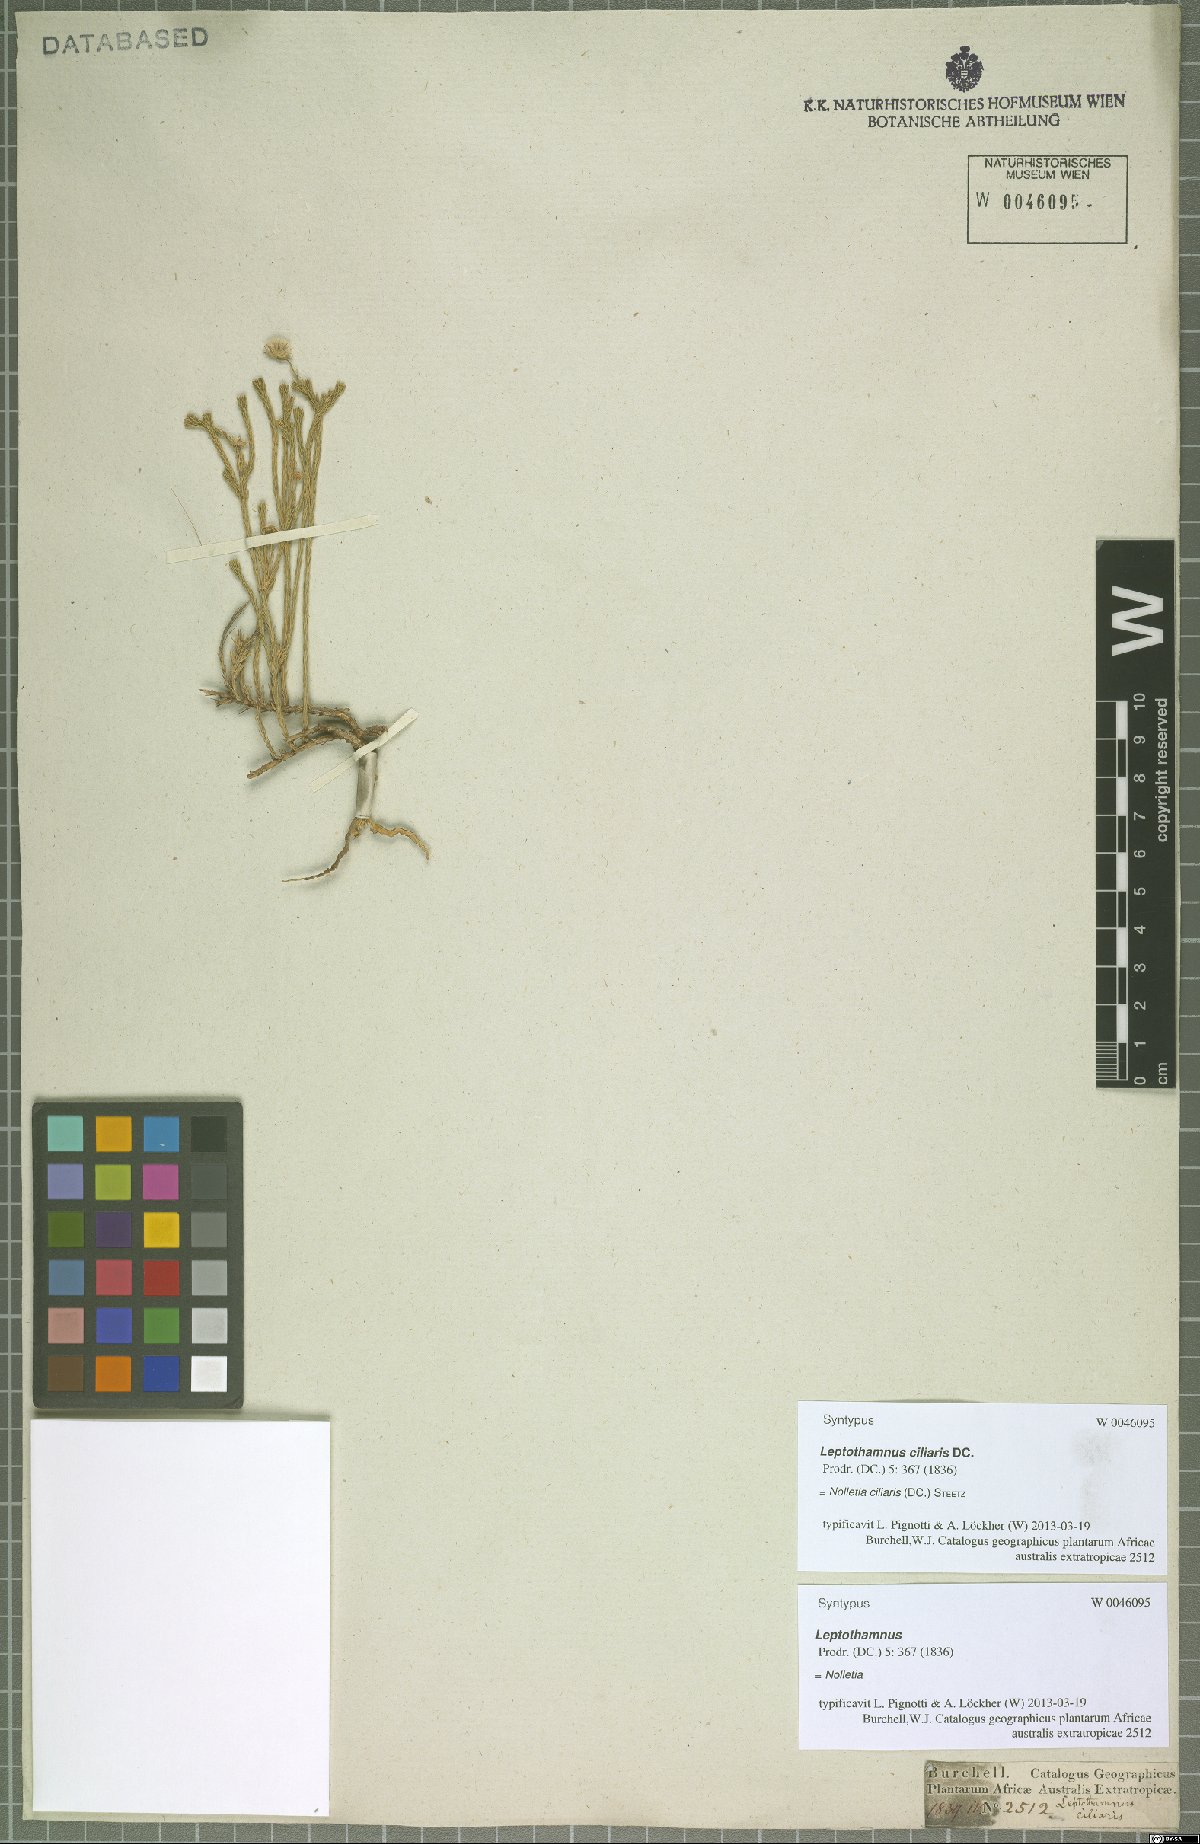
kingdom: Plantae
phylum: Tracheophyta
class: Magnoliopsida
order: Asterales
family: Asteraceae
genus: Nolletia
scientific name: Nolletia ciliaris
